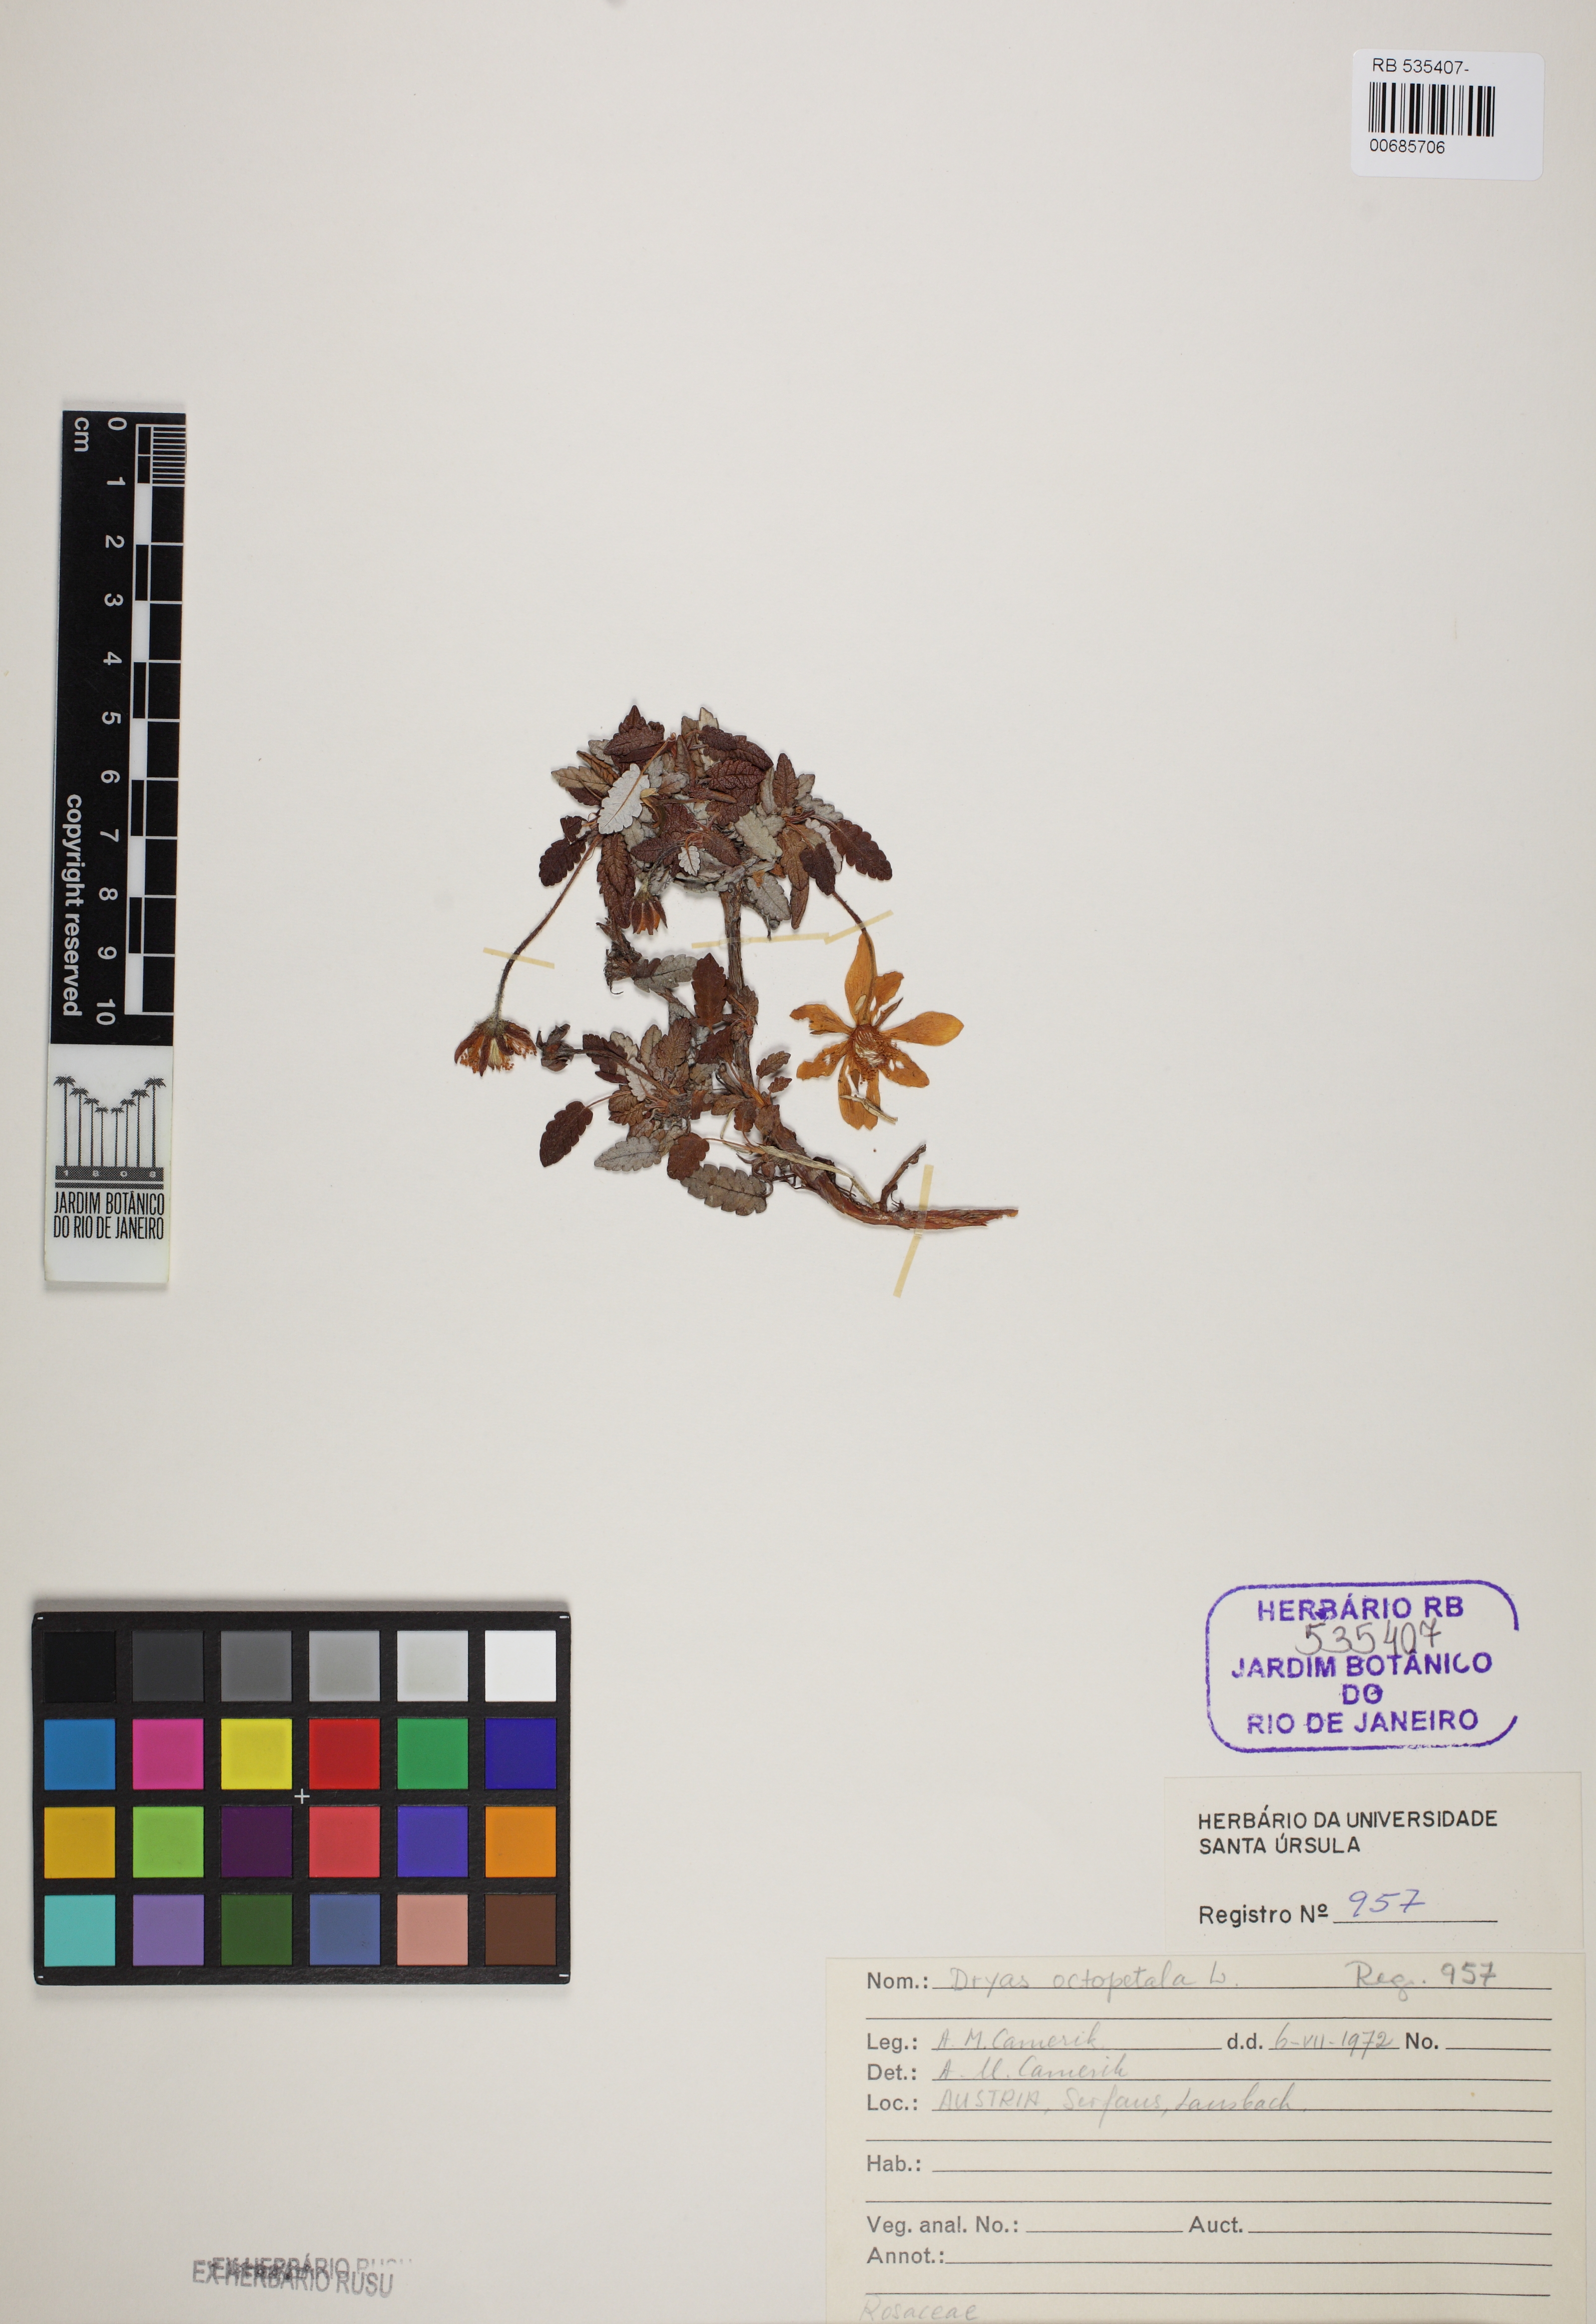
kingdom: Plantae
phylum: Tracheophyta
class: Magnoliopsida
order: Rosales
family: Rosaceae
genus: Dryas
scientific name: Dryas octopetala
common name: Eight-petal mountain-avens
